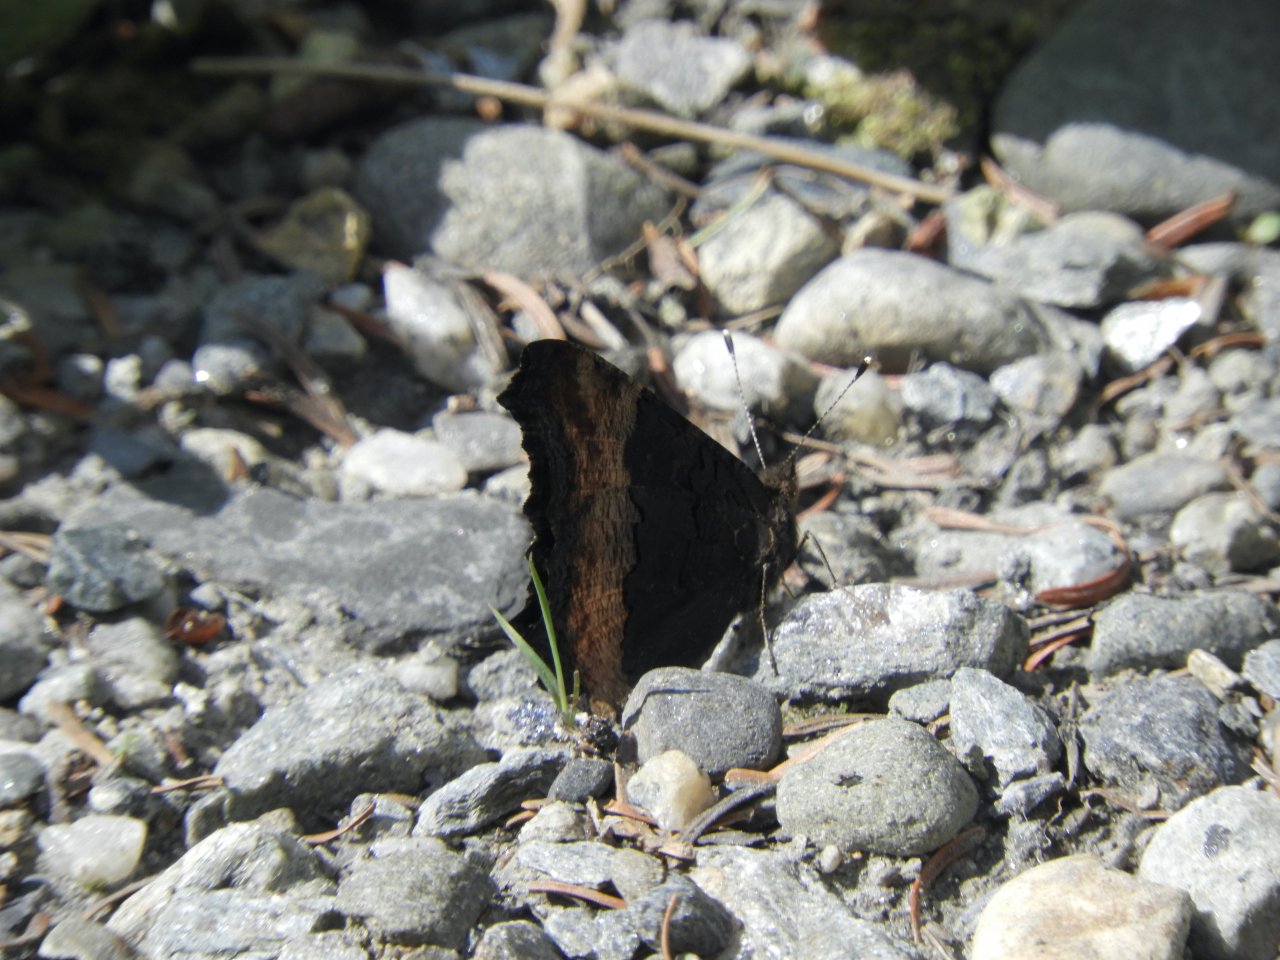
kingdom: Animalia
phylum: Arthropoda
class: Insecta
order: Lepidoptera
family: Nymphalidae
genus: Aglais
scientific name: Aglais milberti
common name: Milbert's Tortoiseshell
